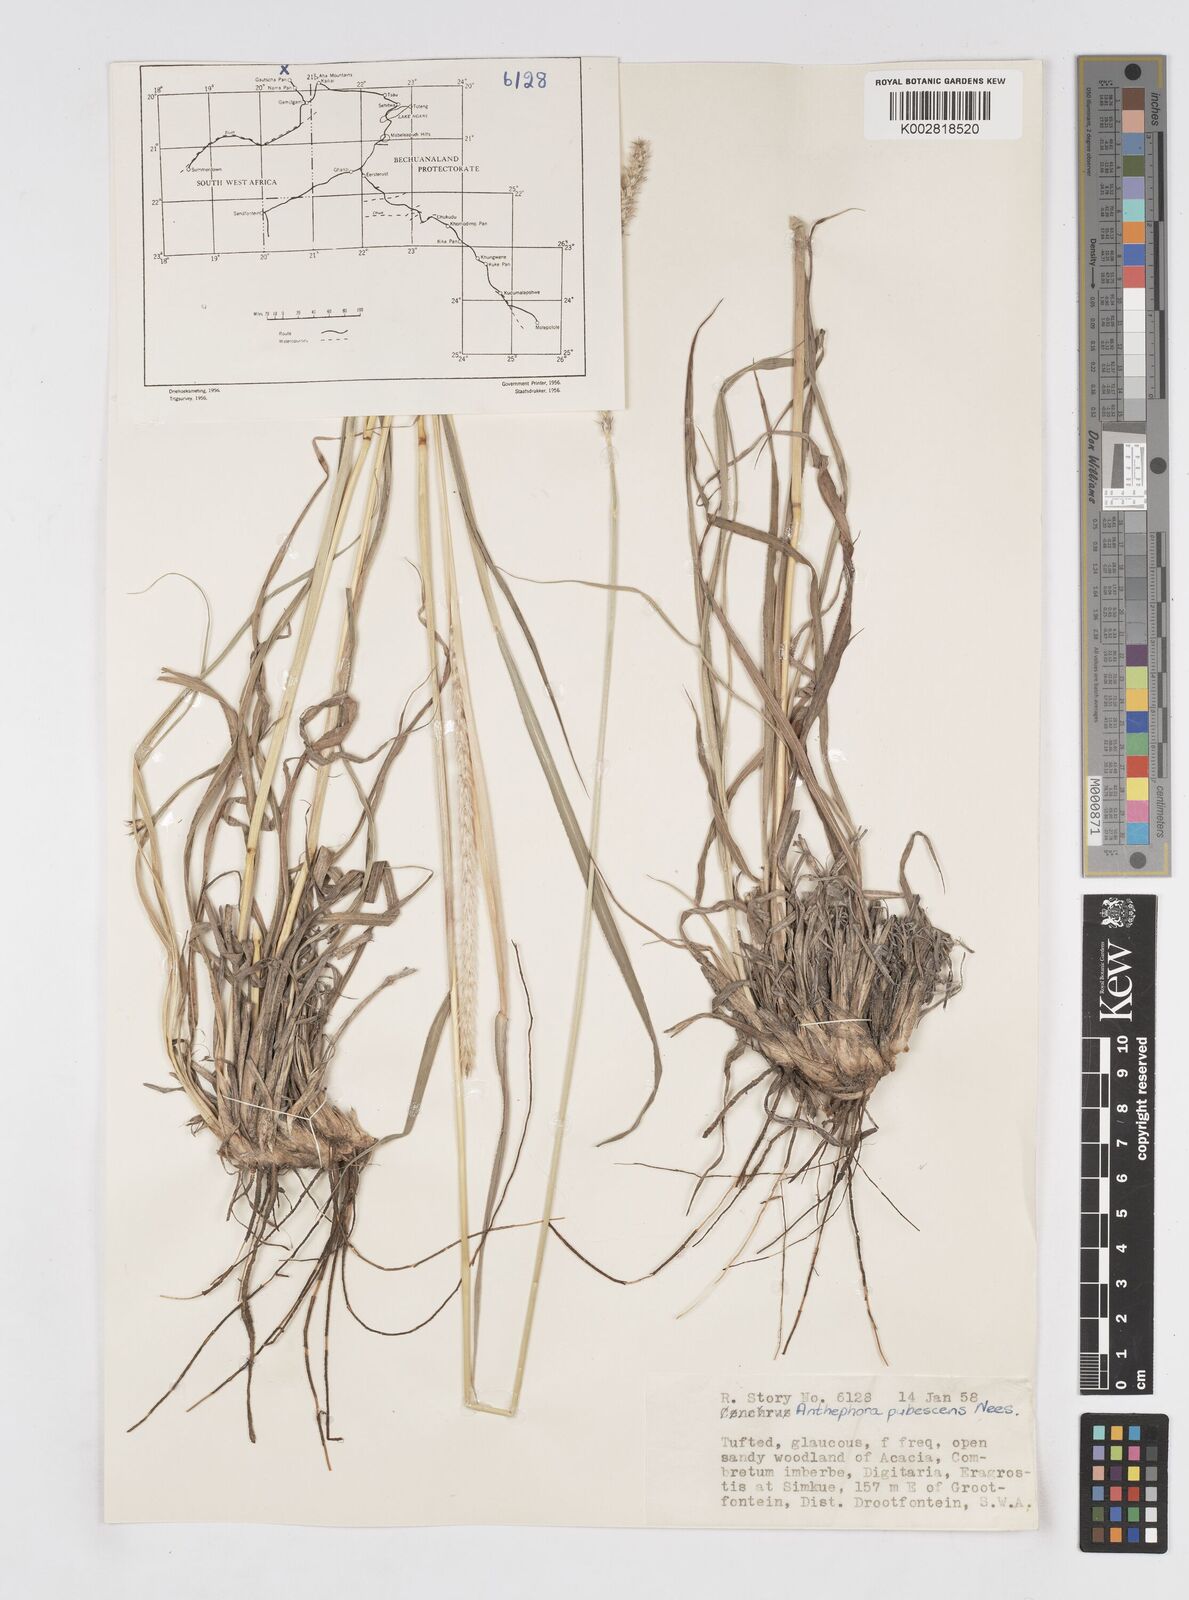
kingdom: Plantae
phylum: Tracheophyta
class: Liliopsida
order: Poales
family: Poaceae
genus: Anthephora
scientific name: Anthephora pubescens
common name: Wool grass
